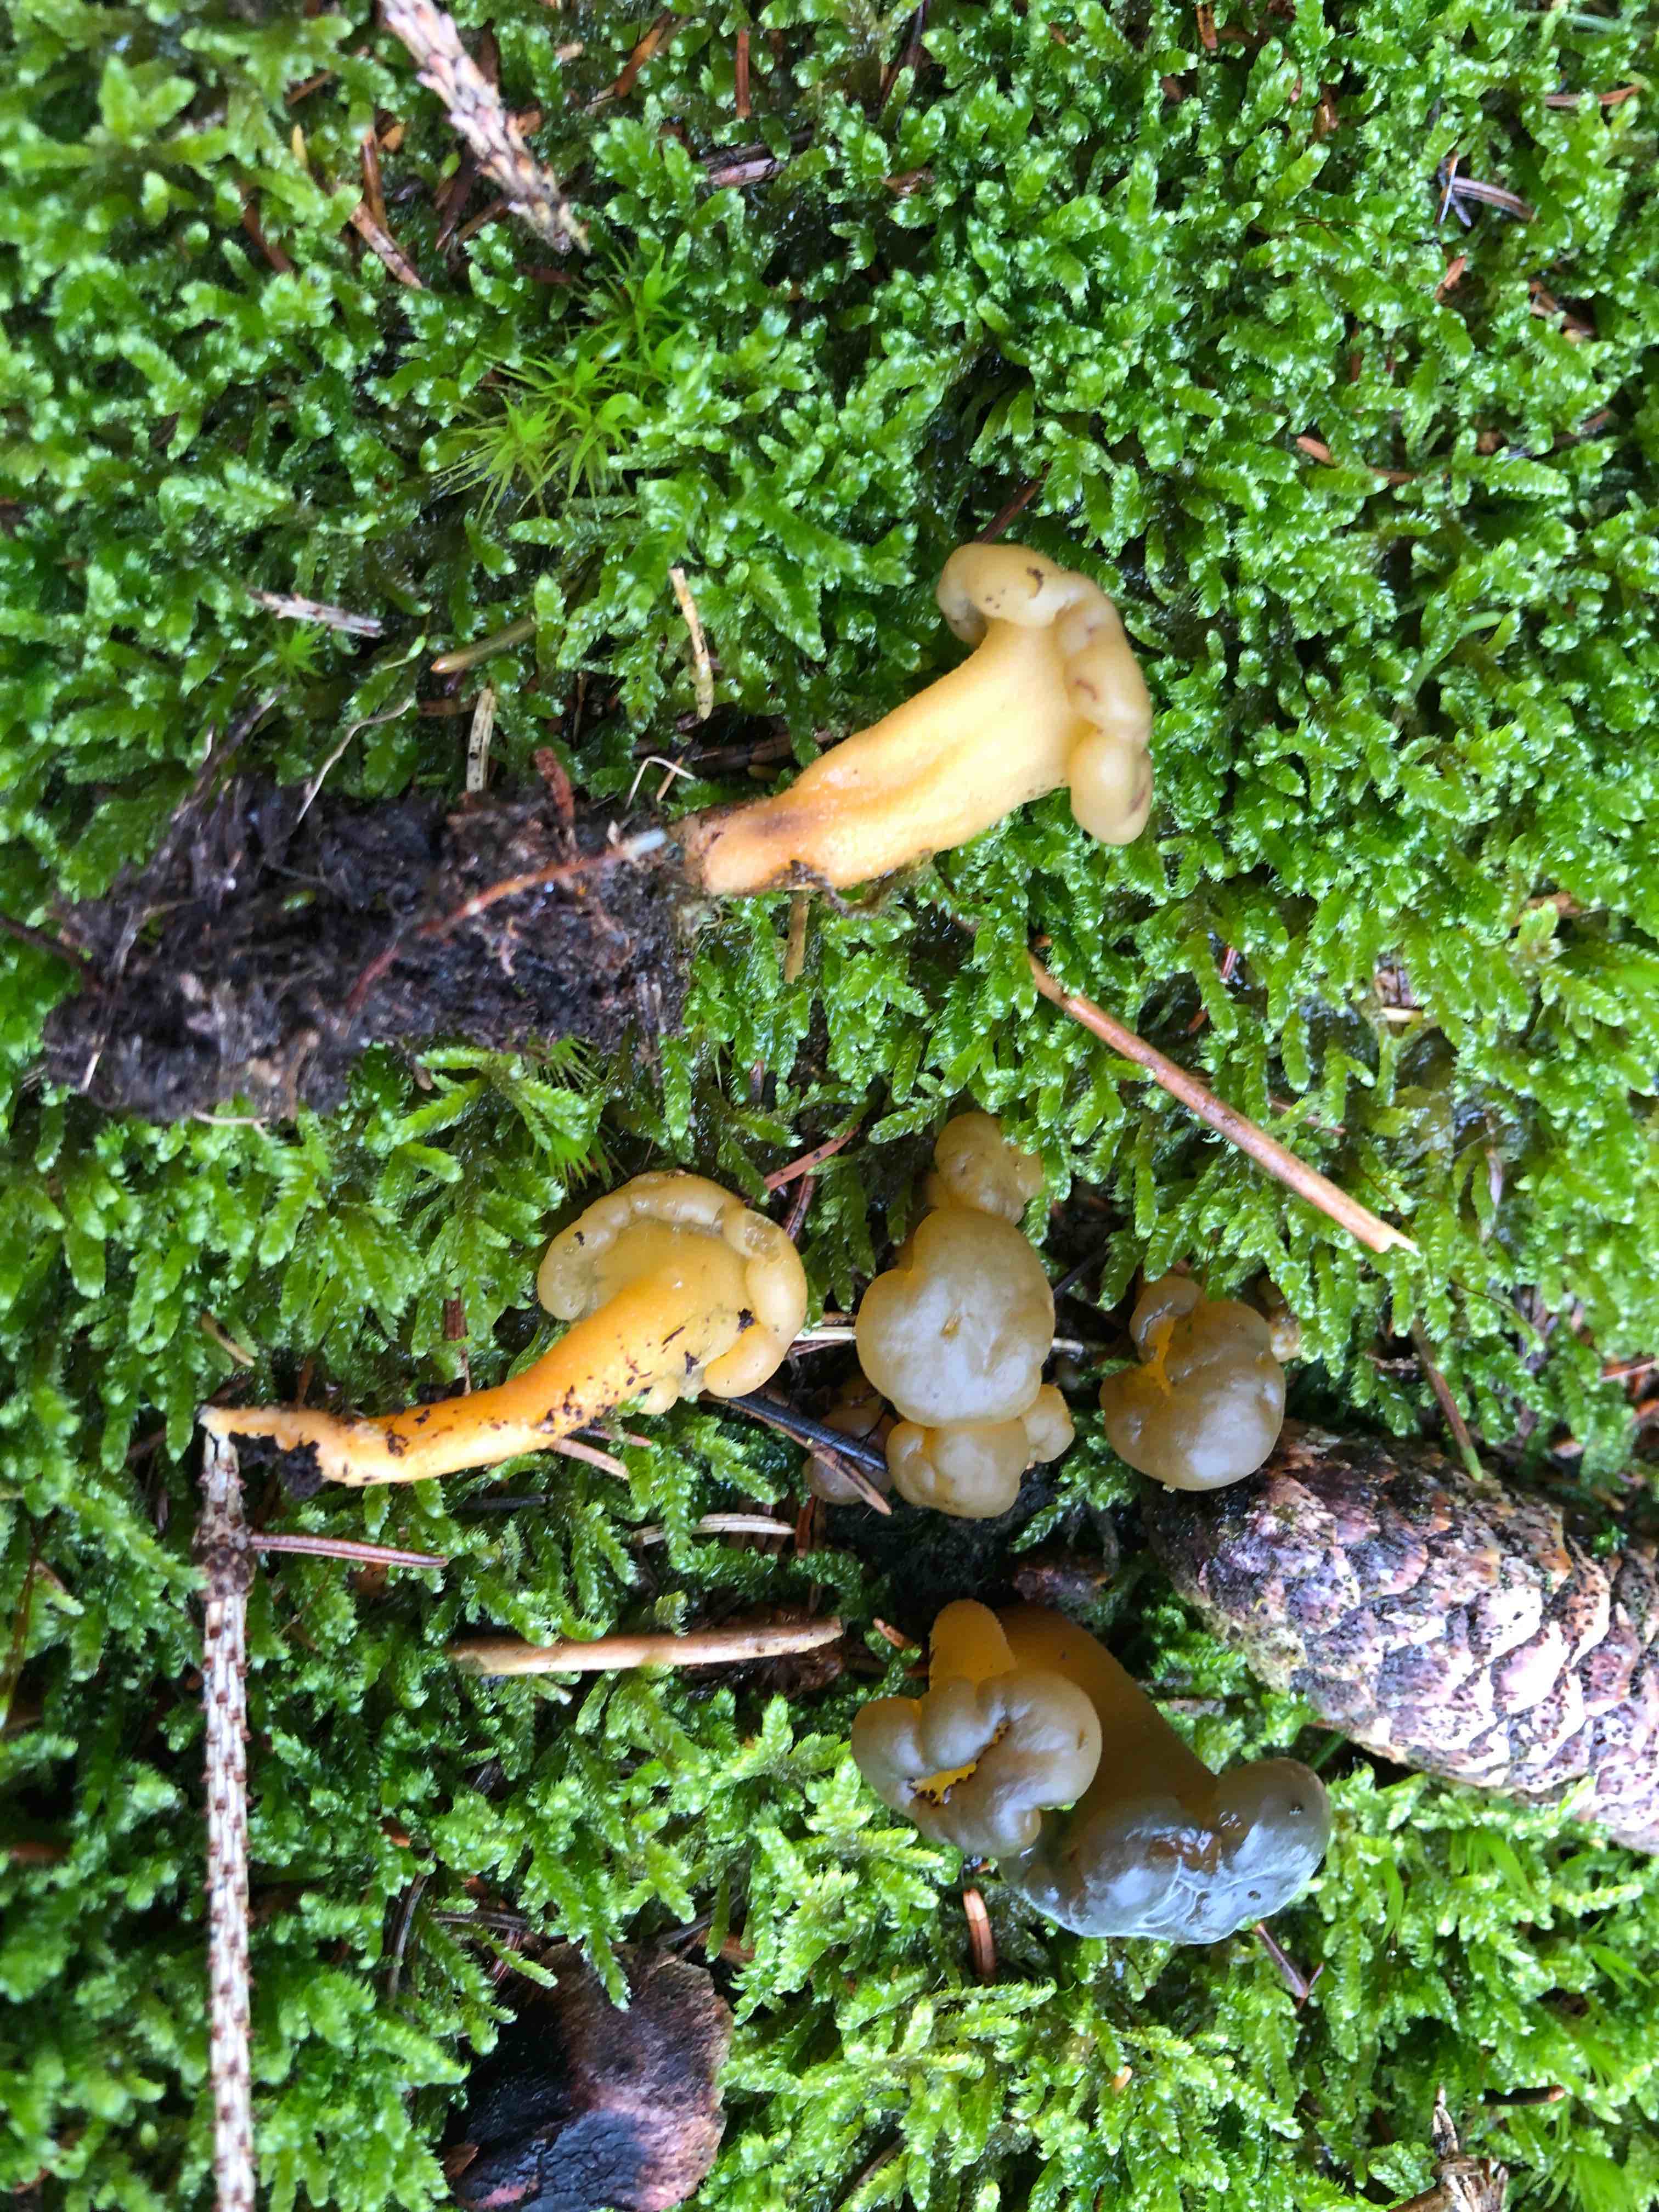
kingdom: Fungi
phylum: Ascomycota
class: Leotiomycetes
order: Leotiales
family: Leotiaceae
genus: Leotia
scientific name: Leotia lubrica
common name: ravsvamp
